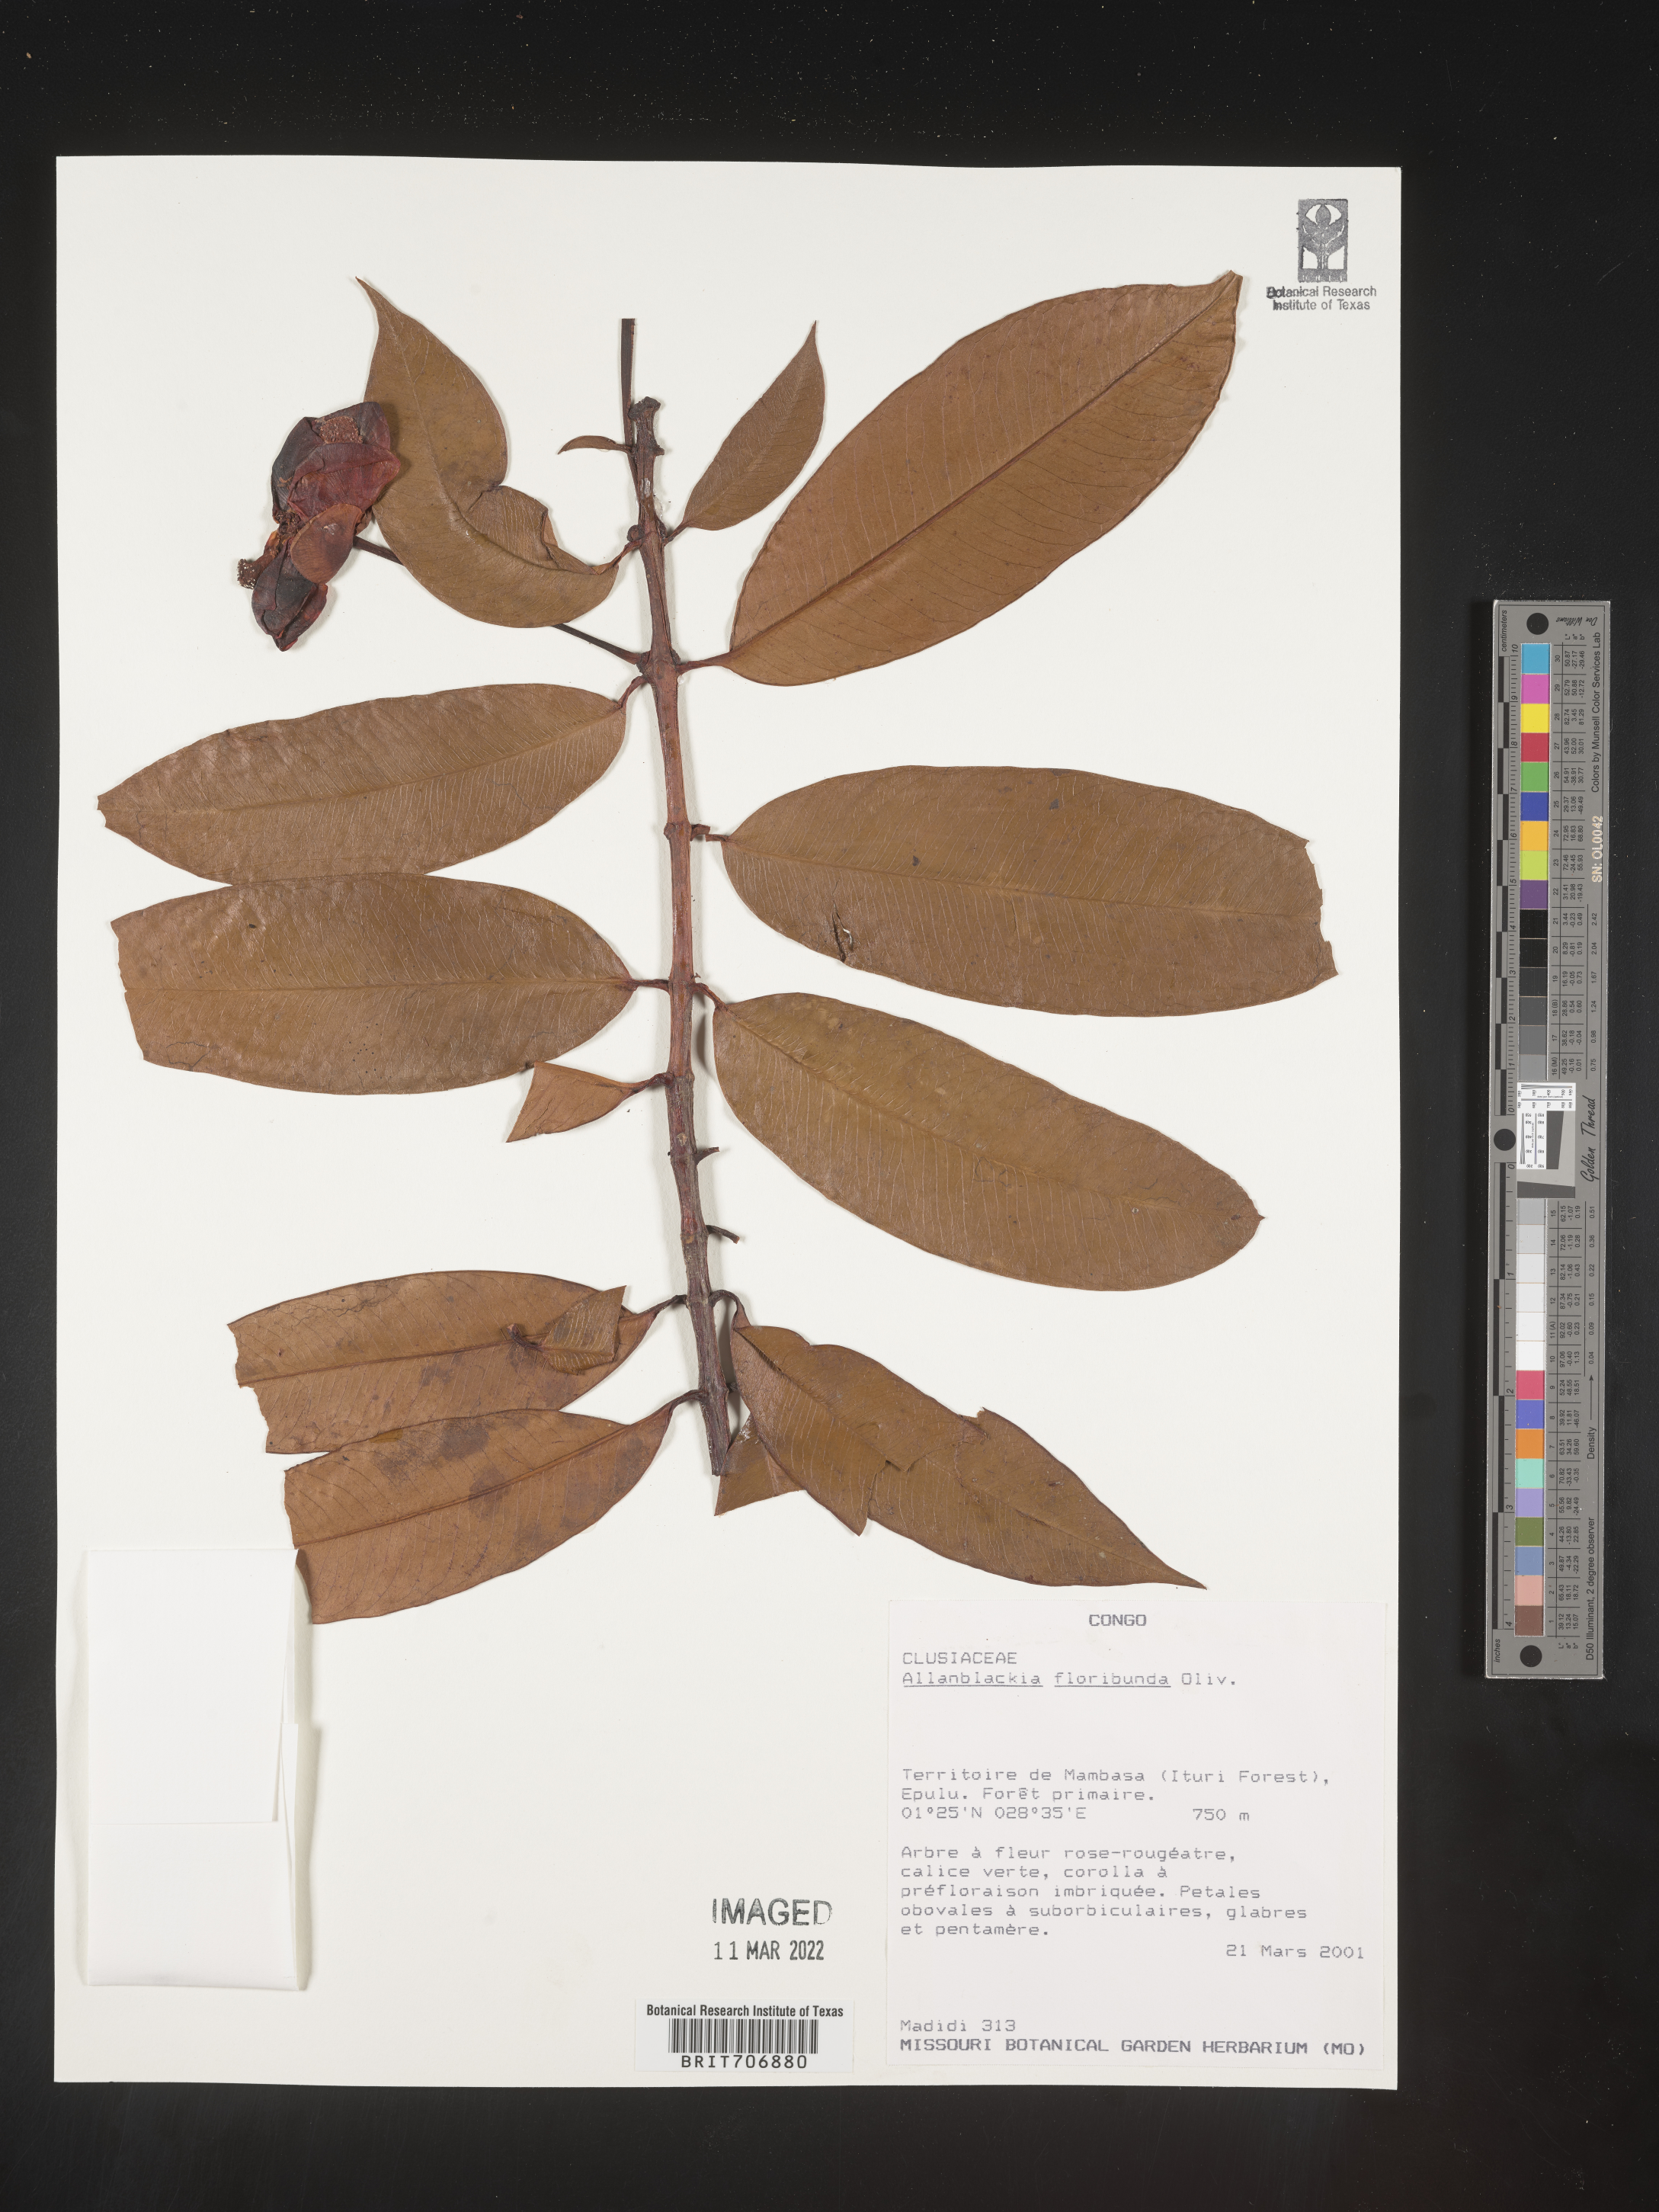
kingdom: Plantae
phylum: Tracheophyta
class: Magnoliopsida
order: Malpighiales
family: Clusiaceae
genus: Allanblackia
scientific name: Allanblackia
